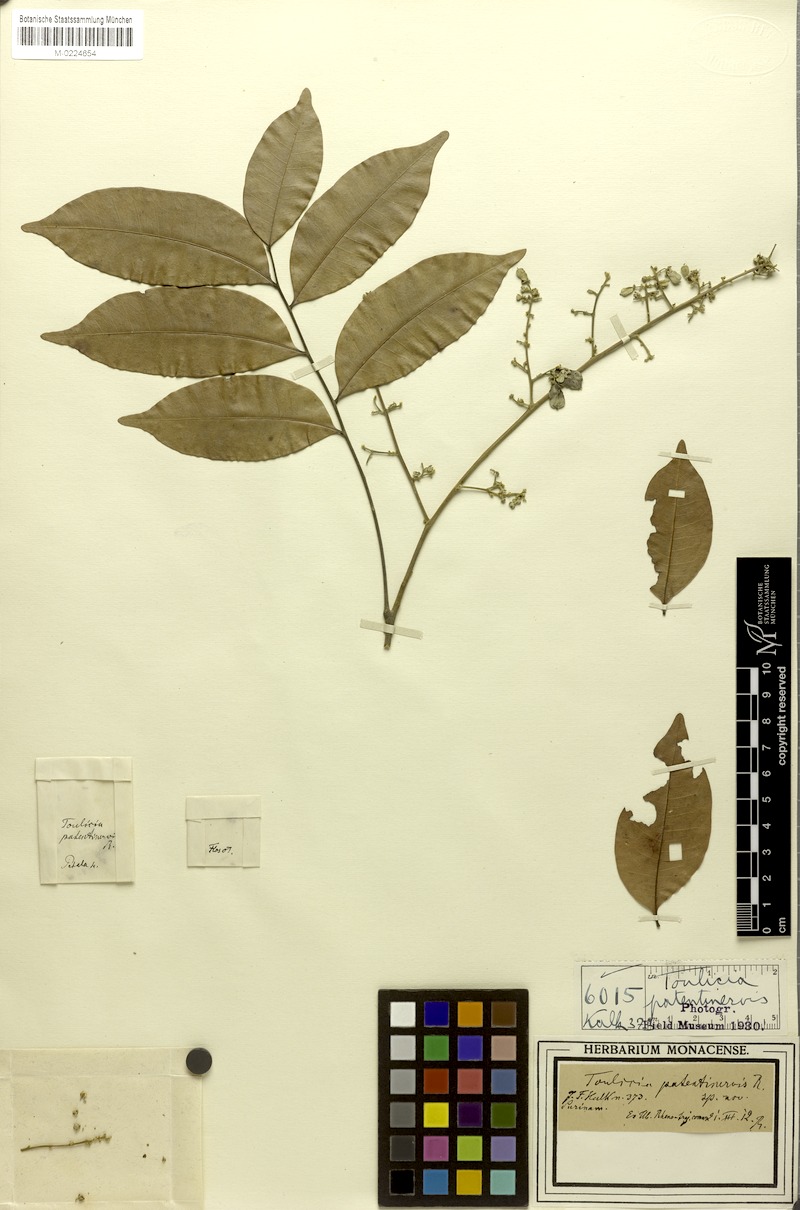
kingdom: Plantae
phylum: Tracheophyta
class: Magnoliopsida
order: Sapindales
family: Sapindaceae
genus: Toulicia
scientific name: Toulicia patentinervis
